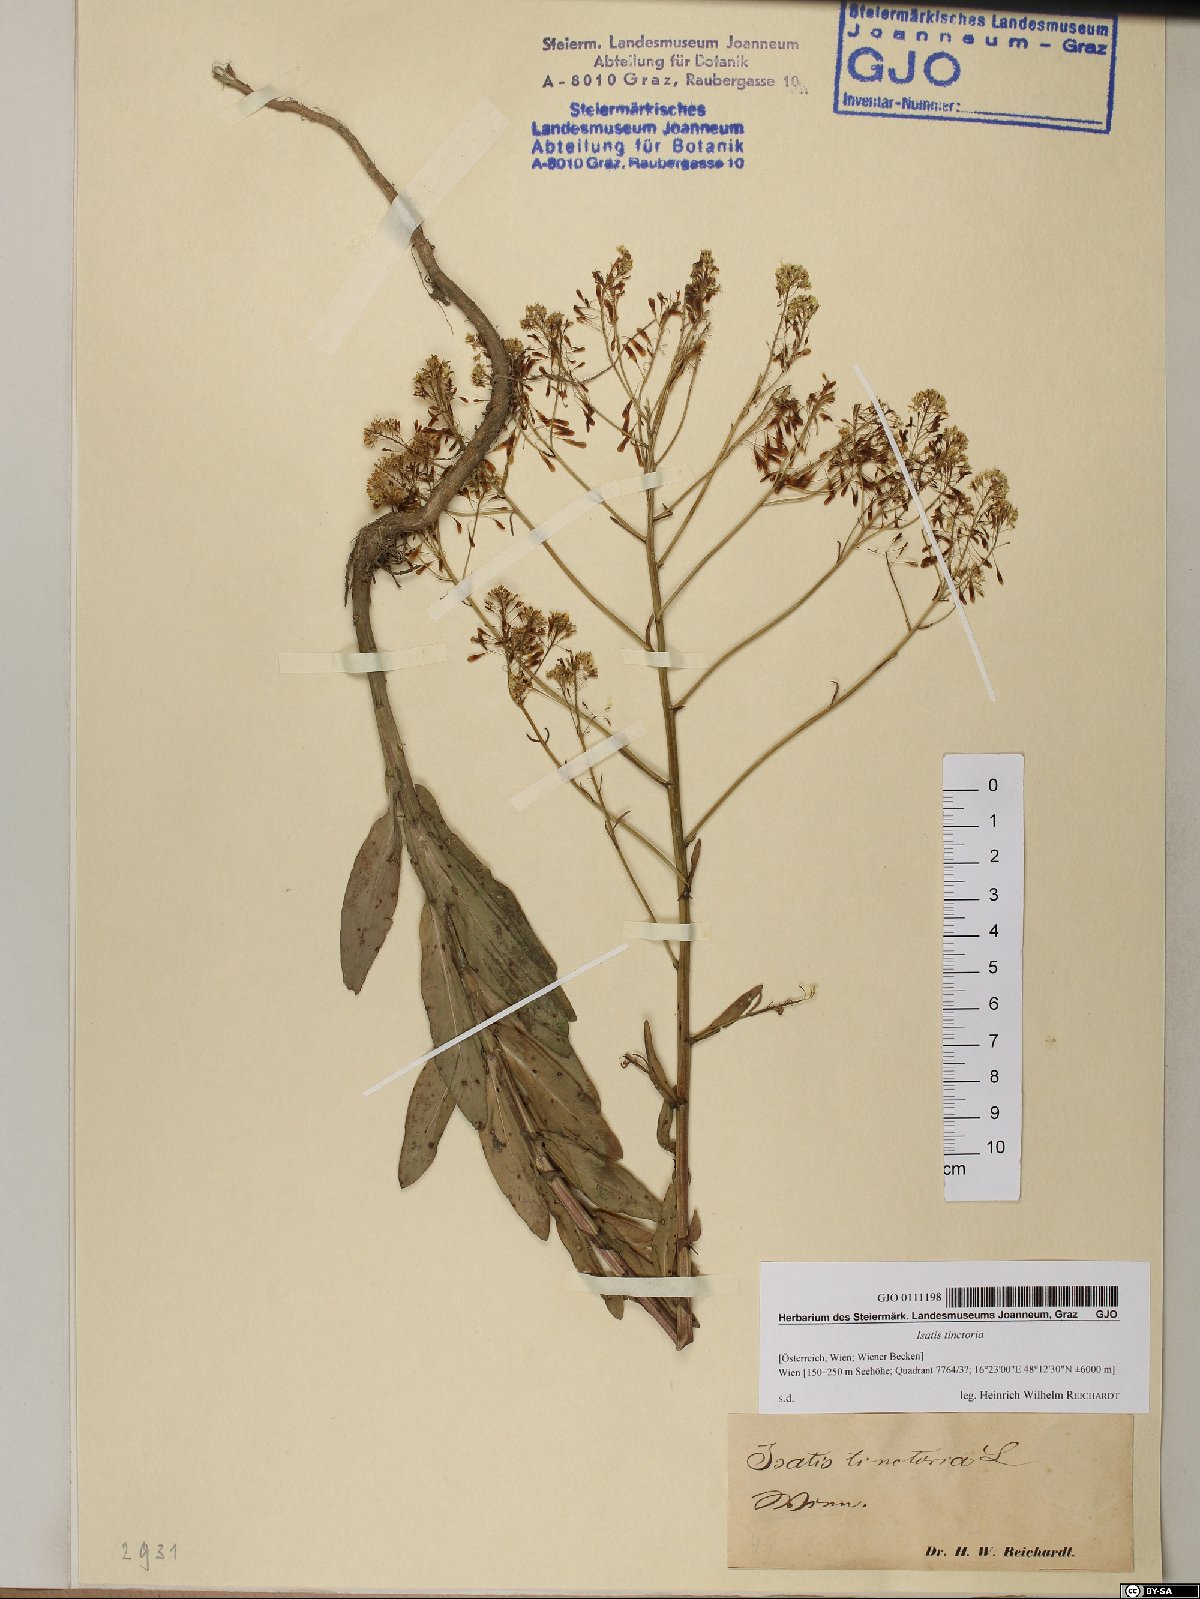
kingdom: Plantae
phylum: Tracheophyta
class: Magnoliopsida
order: Brassicales
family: Brassicaceae
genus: Isatis
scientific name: Isatis tinctoria
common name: Woad
